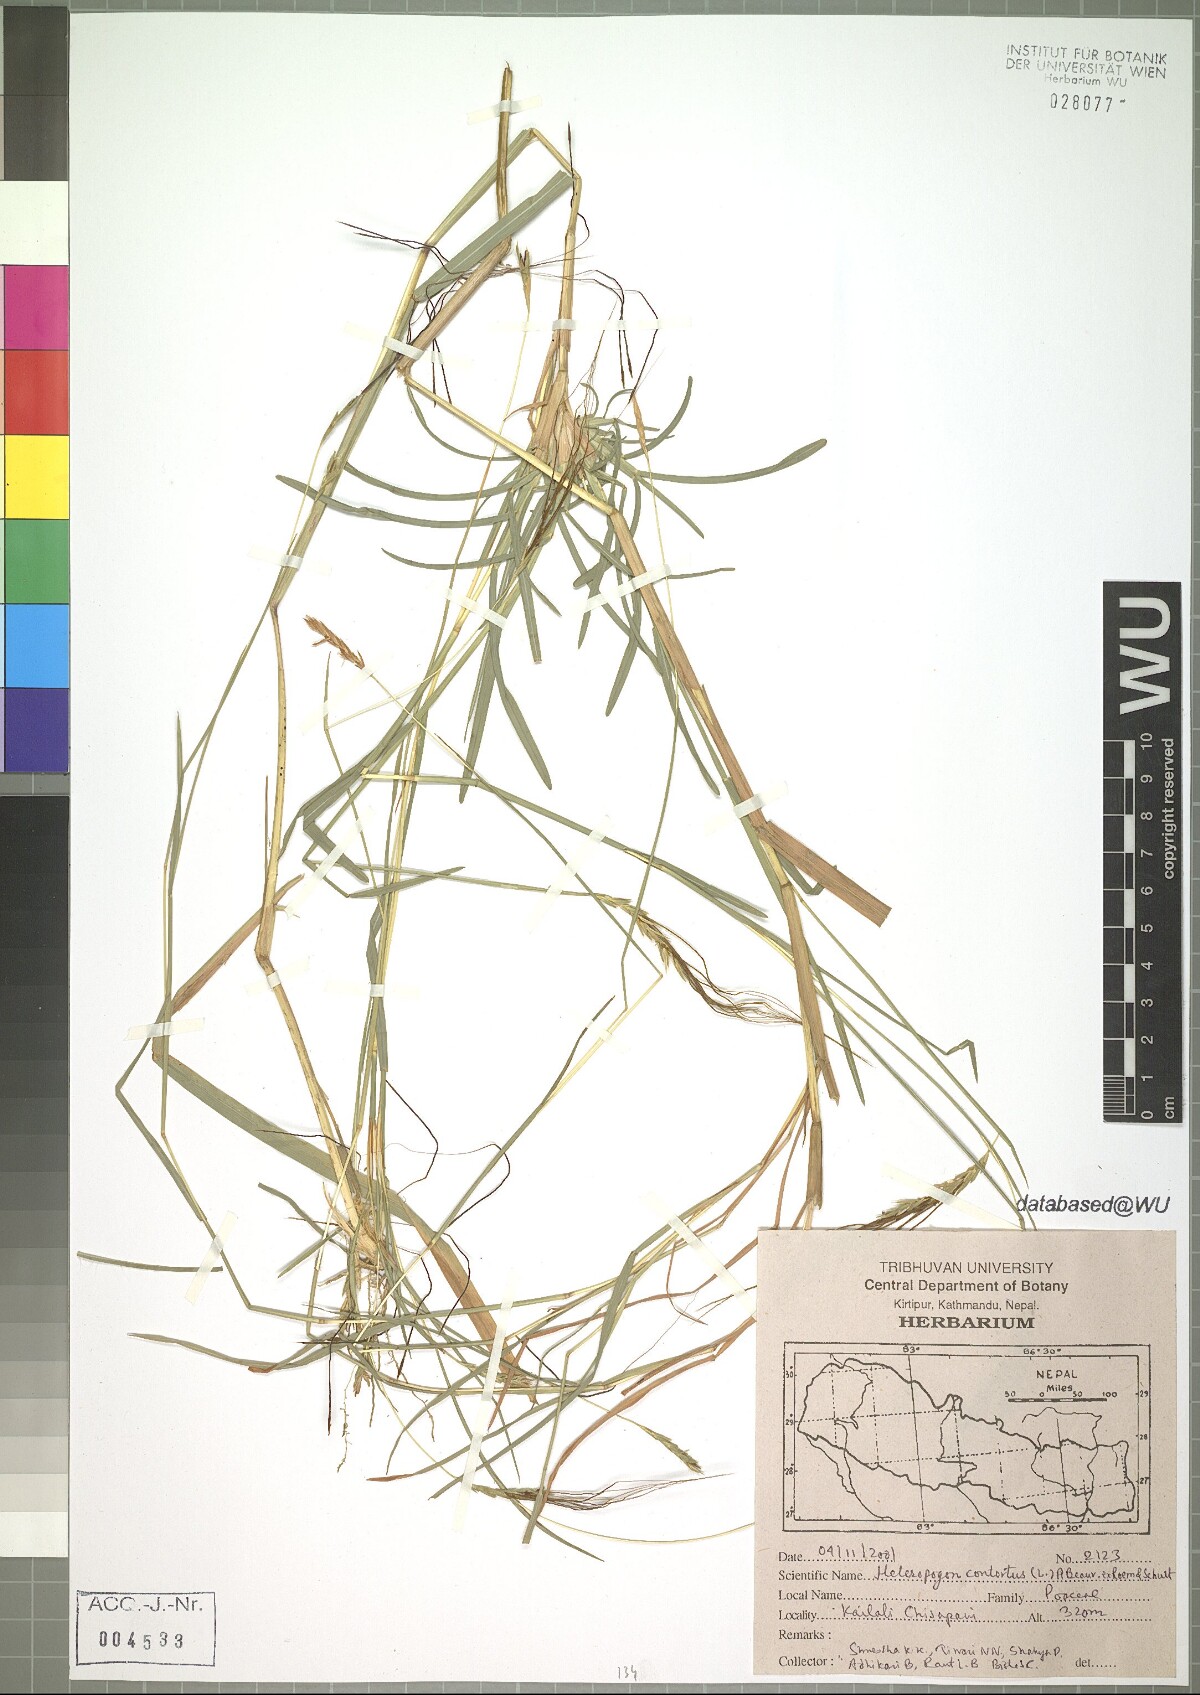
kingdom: Plantae
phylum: Tracheophyta
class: Liliopsida
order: Poales
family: Poaceae
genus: Heteropogon
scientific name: Heteropogon contortus
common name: Tanglehead
